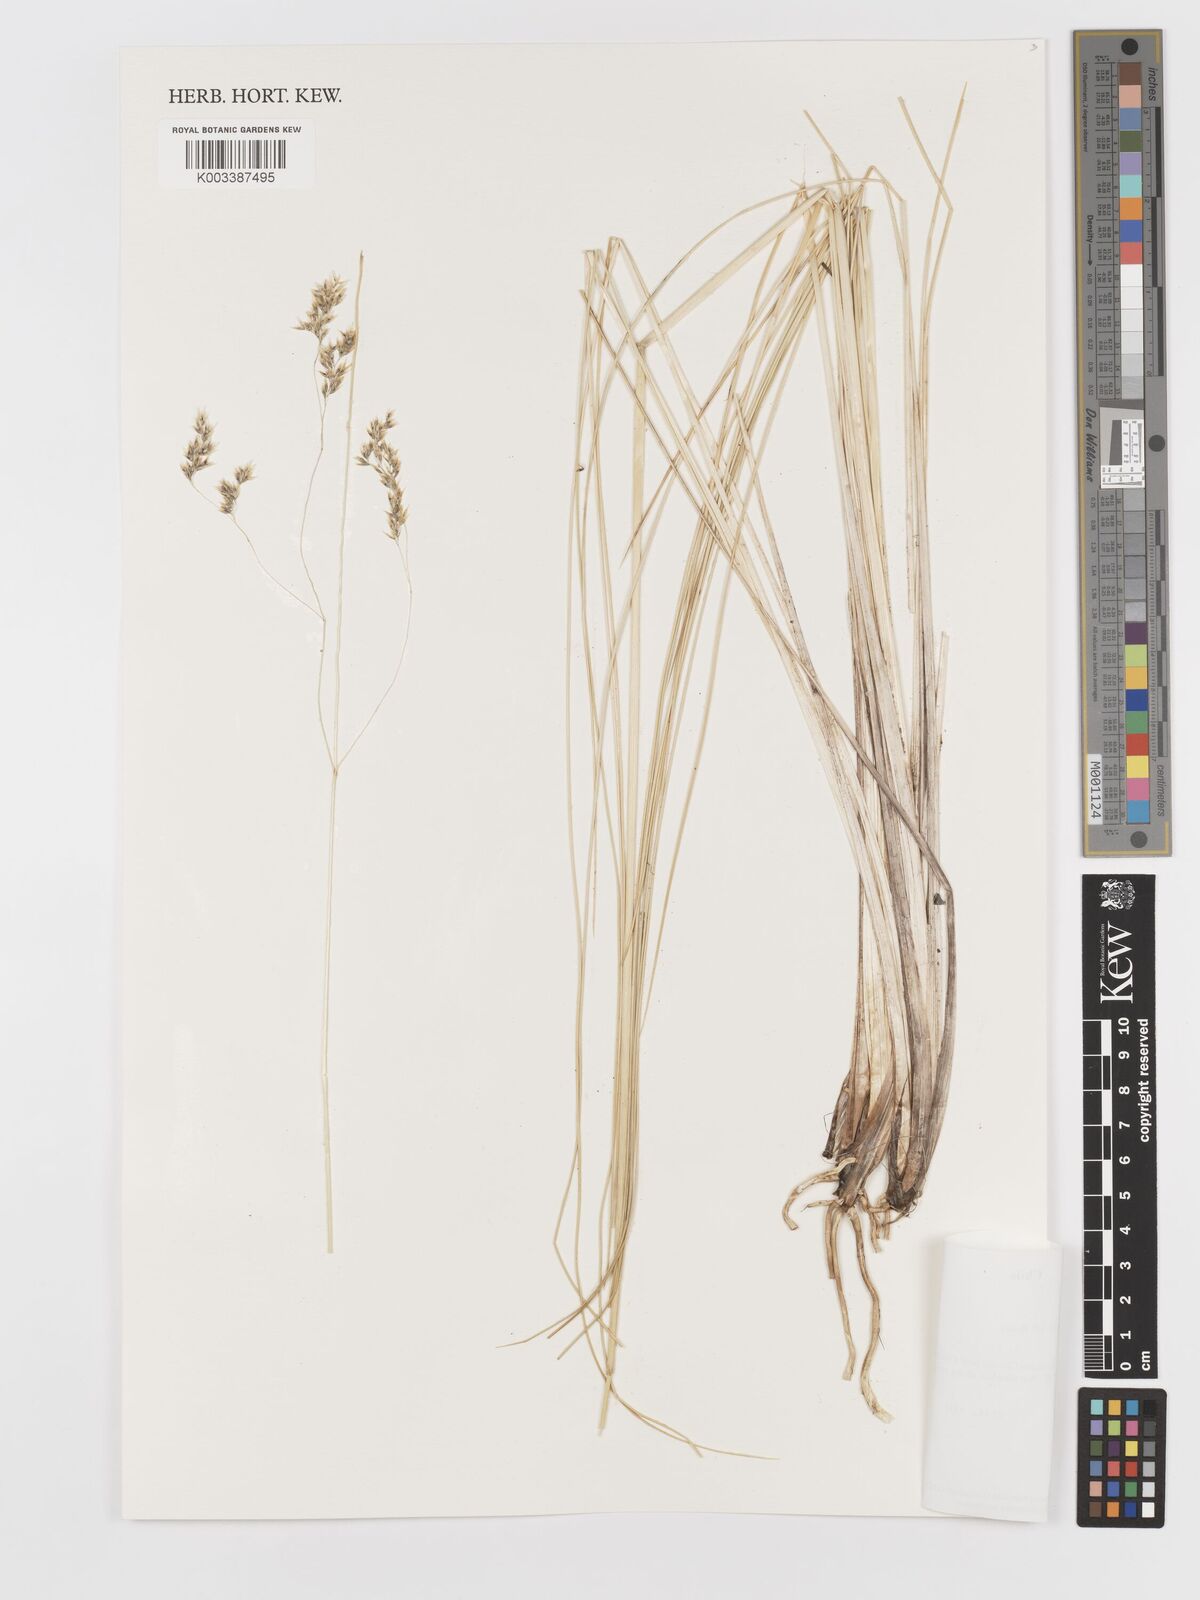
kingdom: Plantae
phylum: Tracheophyta
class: Liliopsida
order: Poales
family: Poaceae
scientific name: Poaceae
